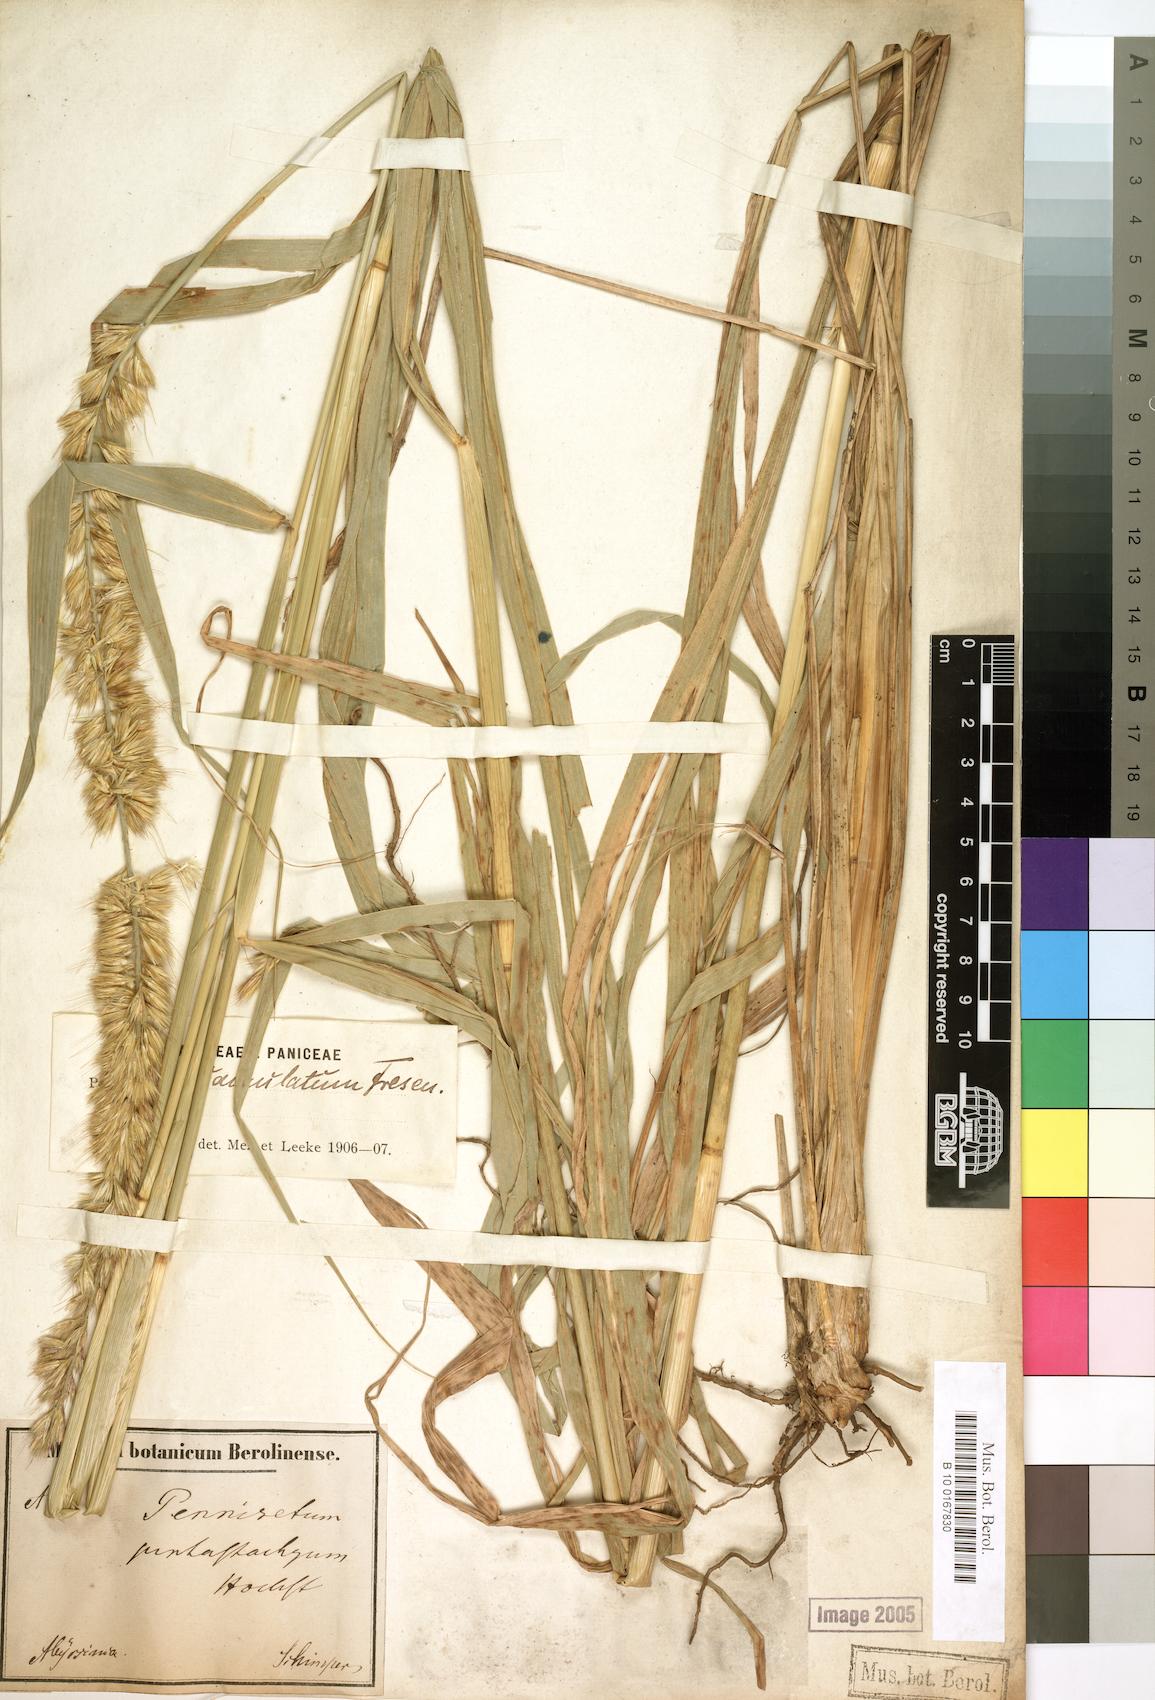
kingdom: Plantae
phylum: Tracheophyta
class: Liliopsida
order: Poales
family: Poaceae
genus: Cenchrus
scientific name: Cenchrus squamulatus
